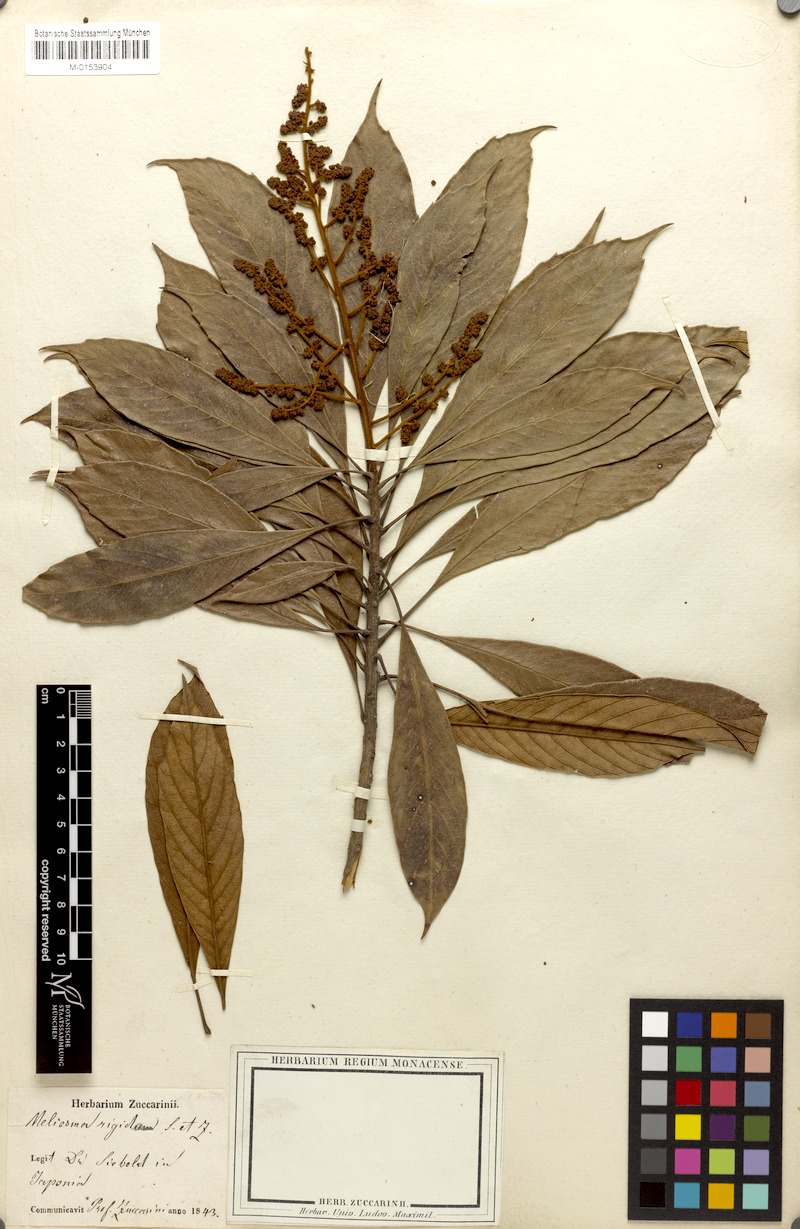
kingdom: Plantae
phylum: Tracheophyta
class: Magnoliopsida
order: Proteales
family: Sabiaceae
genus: Meliosma
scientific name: Meliosma rigida
